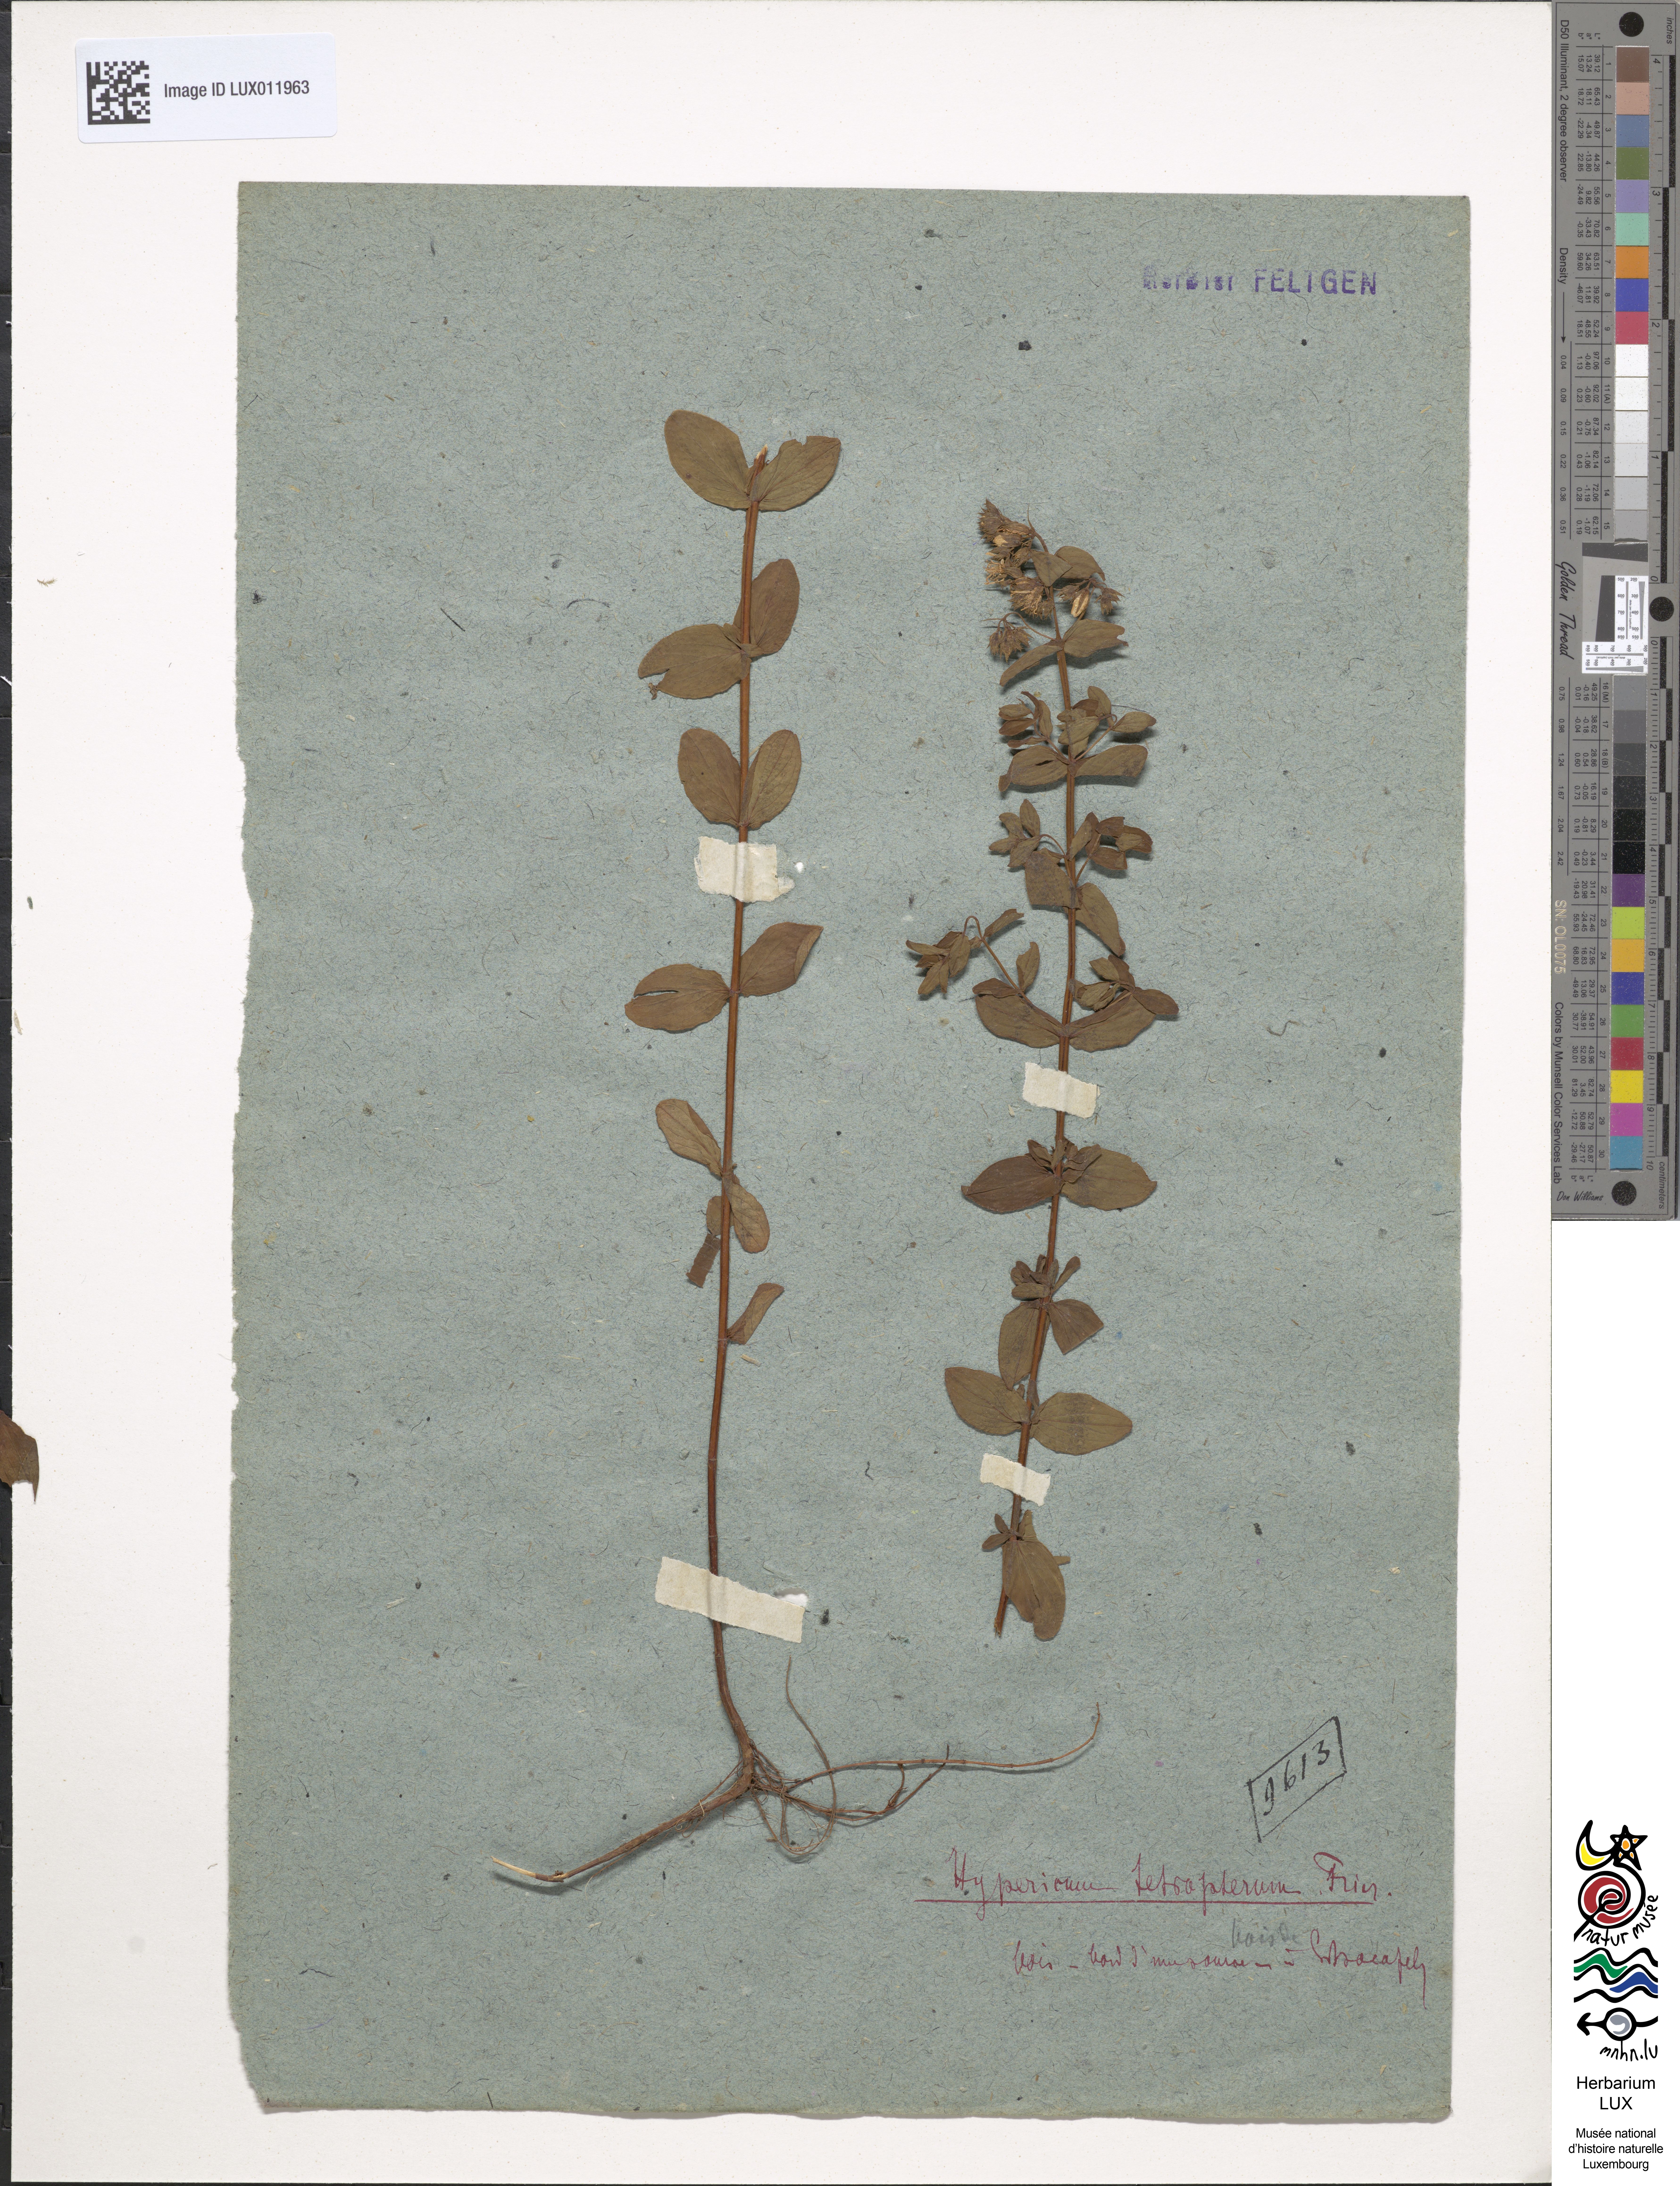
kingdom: Plantae
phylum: Tracheophyta
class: Magnoliopsida
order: Malpighiales
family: Hypericaceae
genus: Hypericum
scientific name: Hypericum tetrapterum
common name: Square-stalked st. john's-wort
